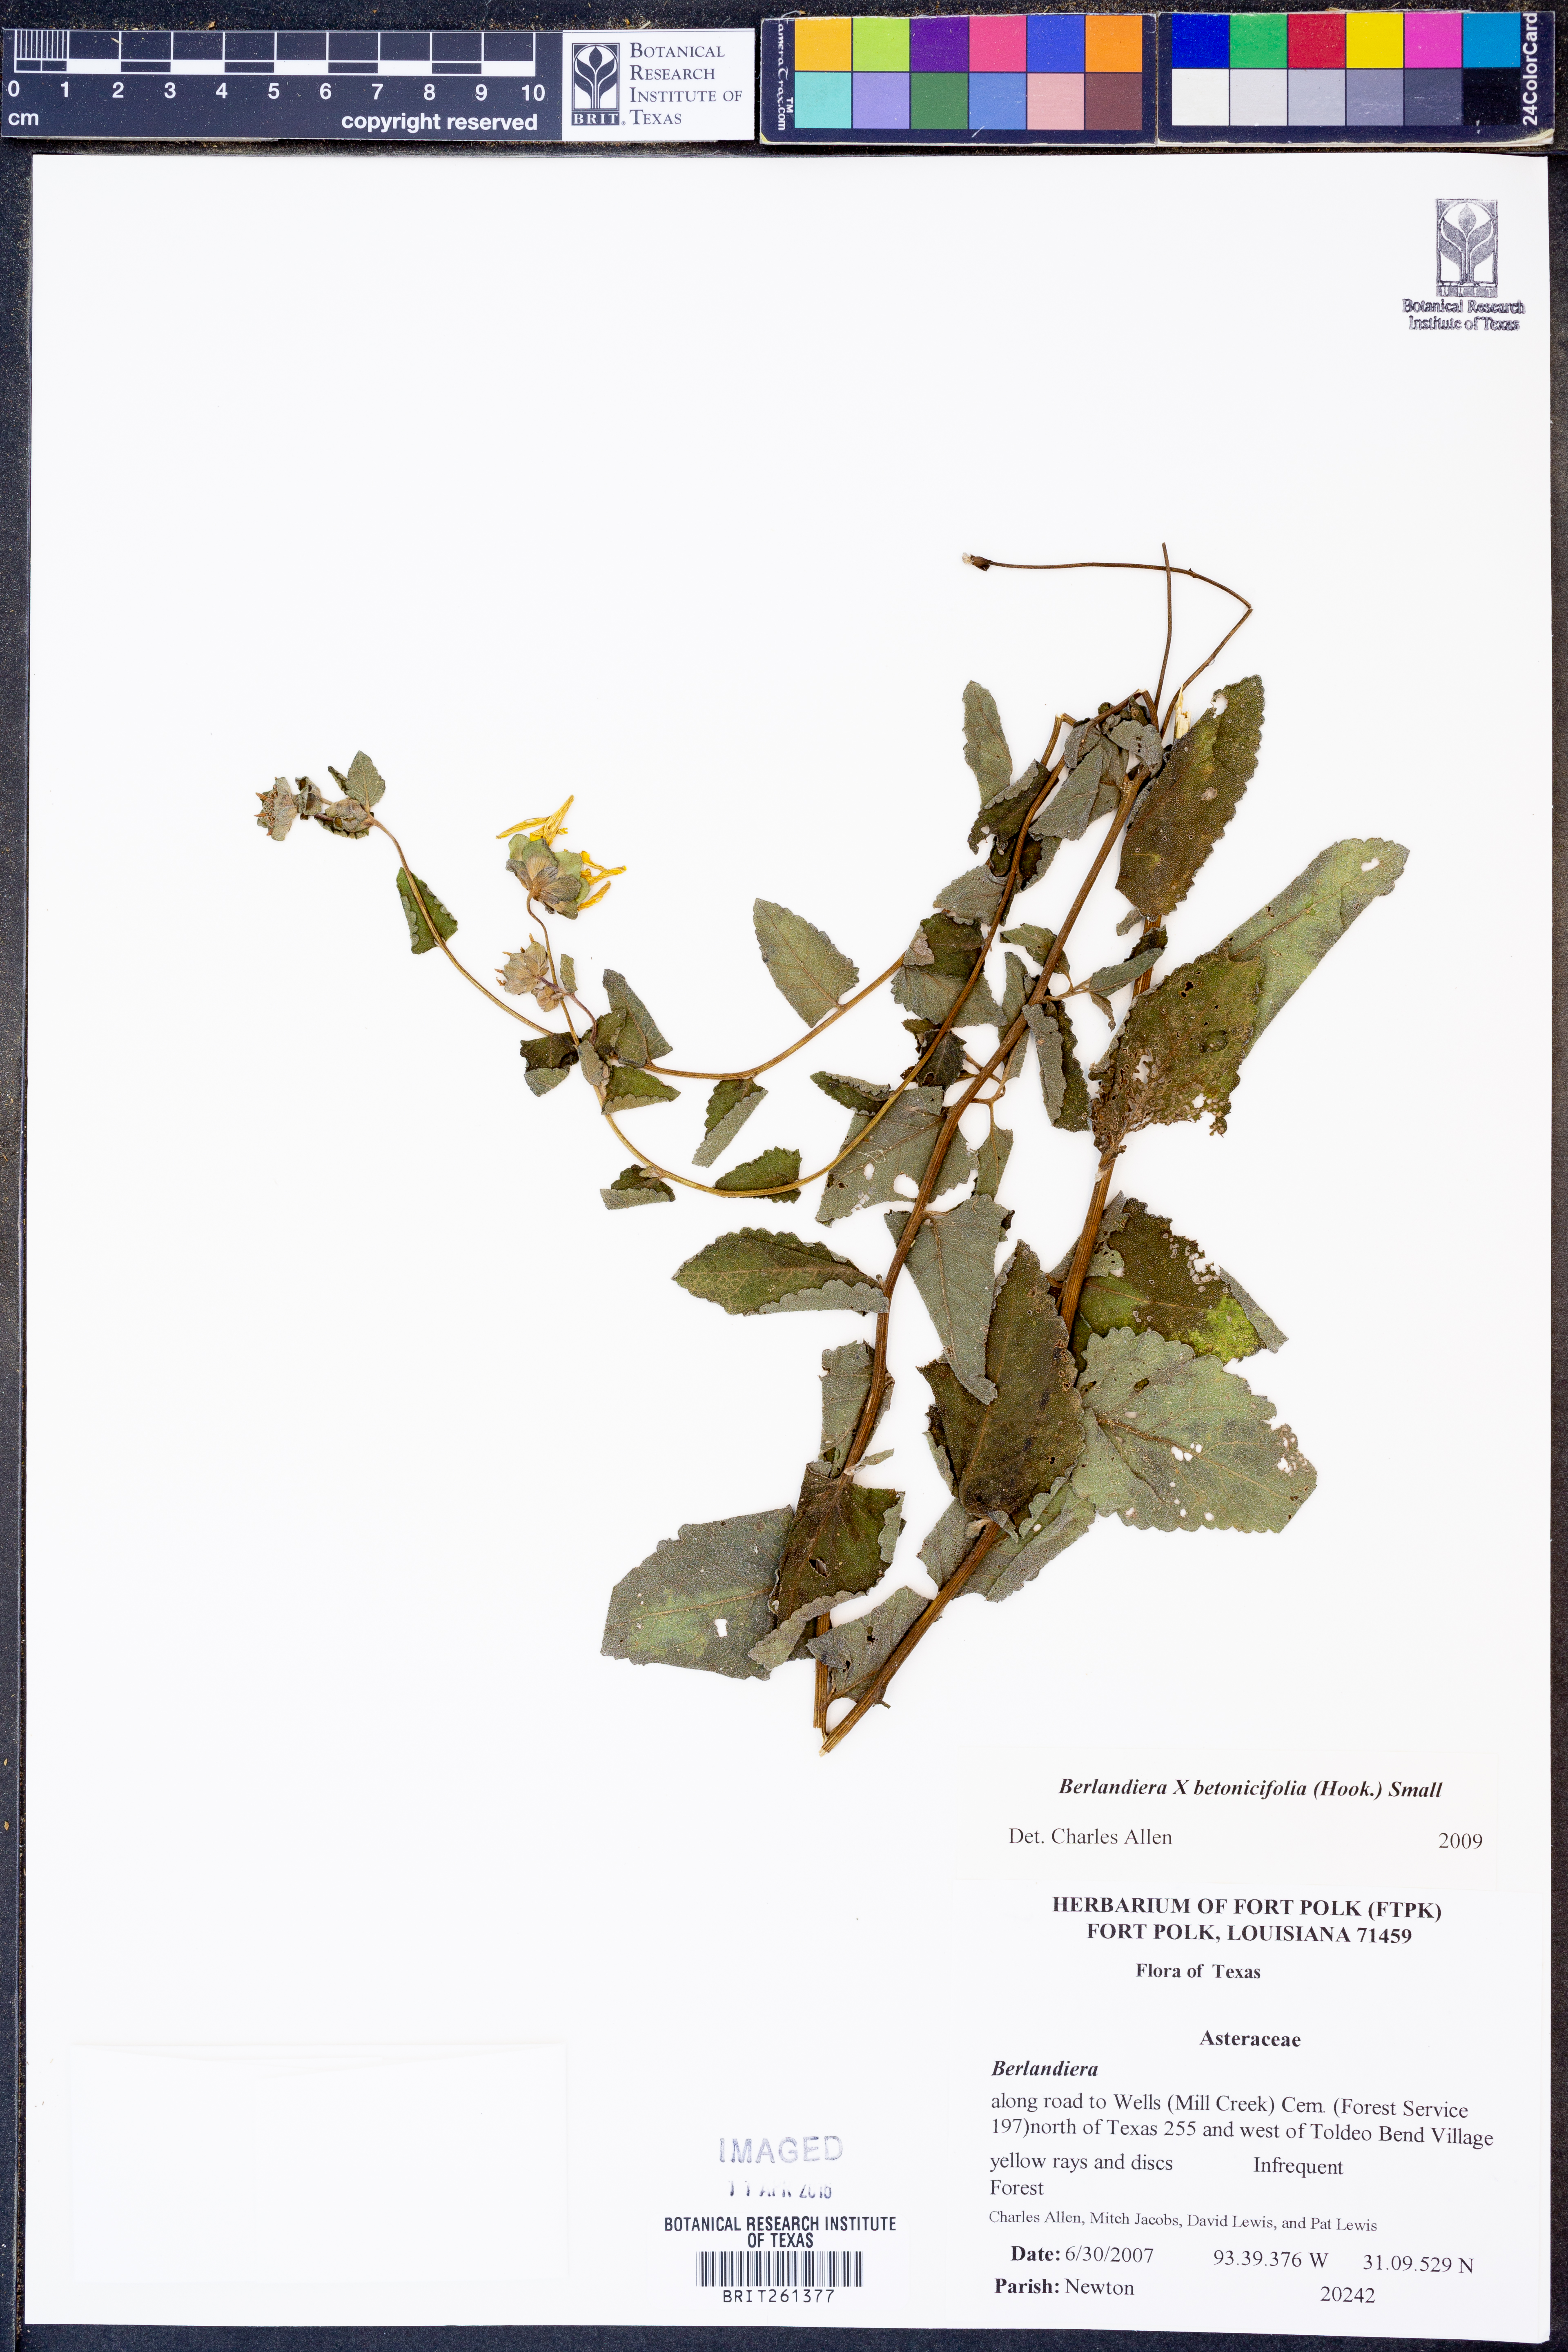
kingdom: Plantae
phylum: Tracheophyta
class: Magnoliopsida
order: Asterales
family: Asteraceae
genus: Berlandiera
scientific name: Berlandiera betonicifolia
